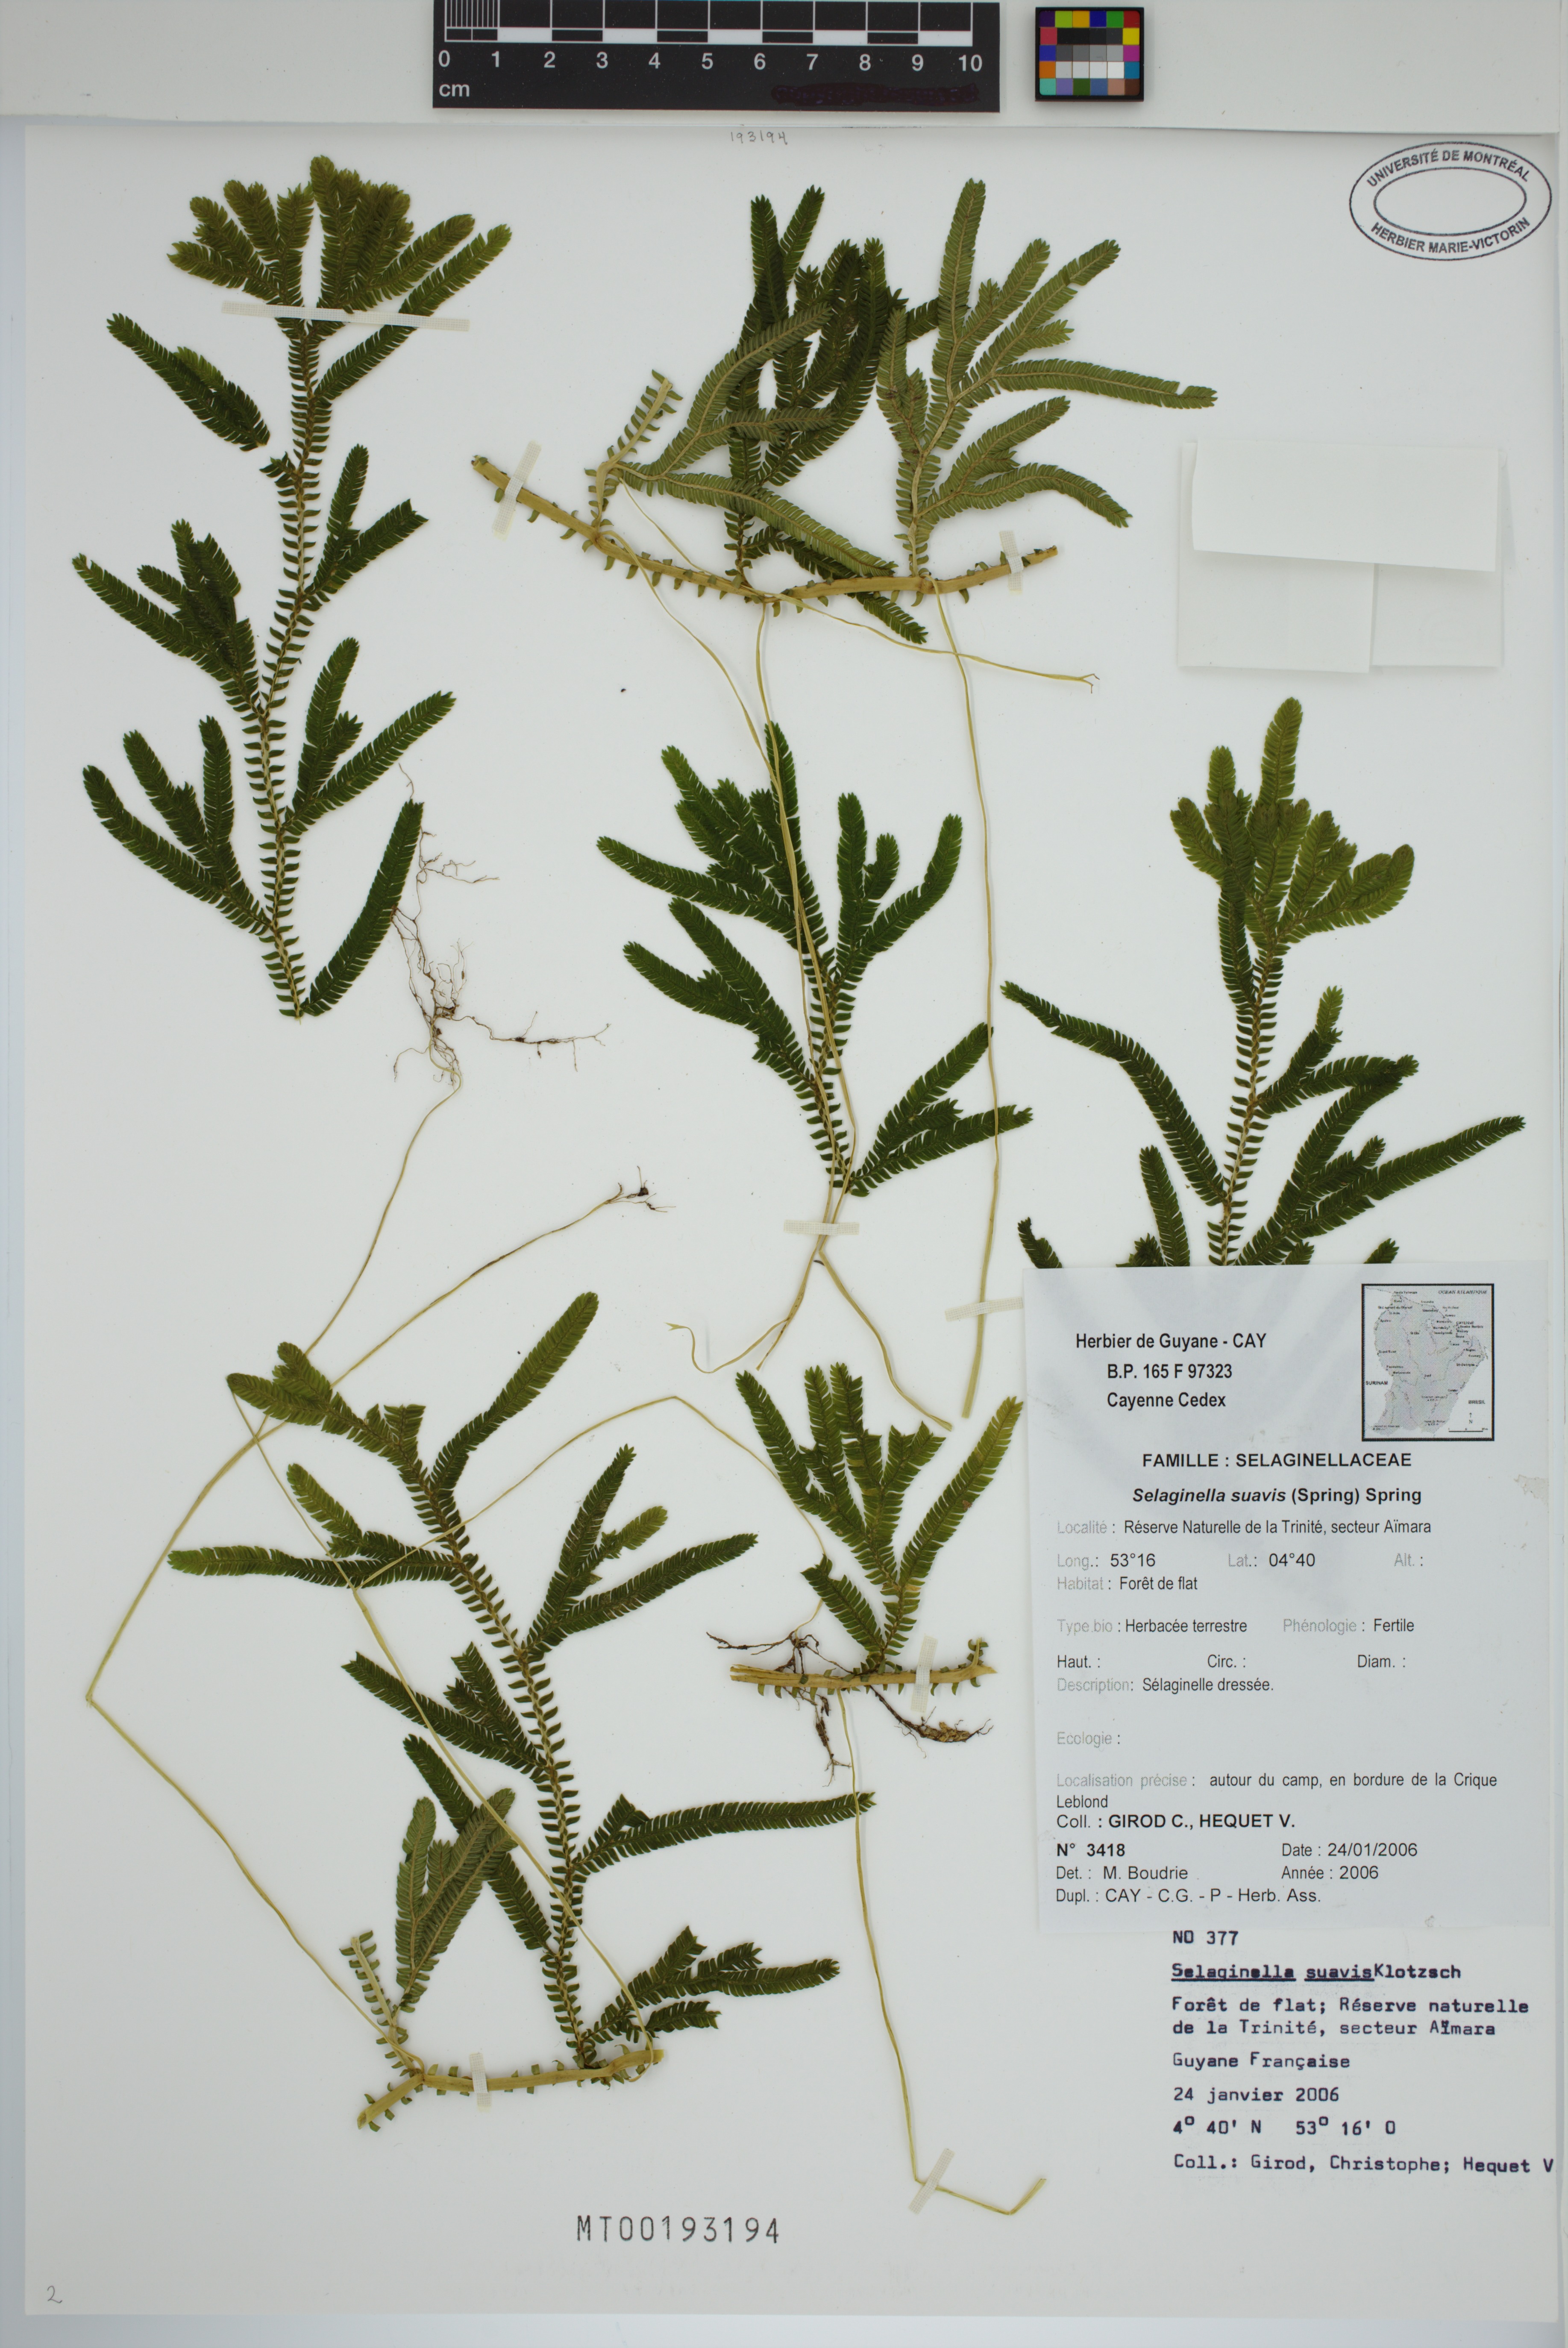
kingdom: Plantae
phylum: Tracheophyta
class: Lycopodiopsida
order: Selaginellales
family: Selaginellaceae
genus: Selaginella
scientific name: Selaginella suavis
